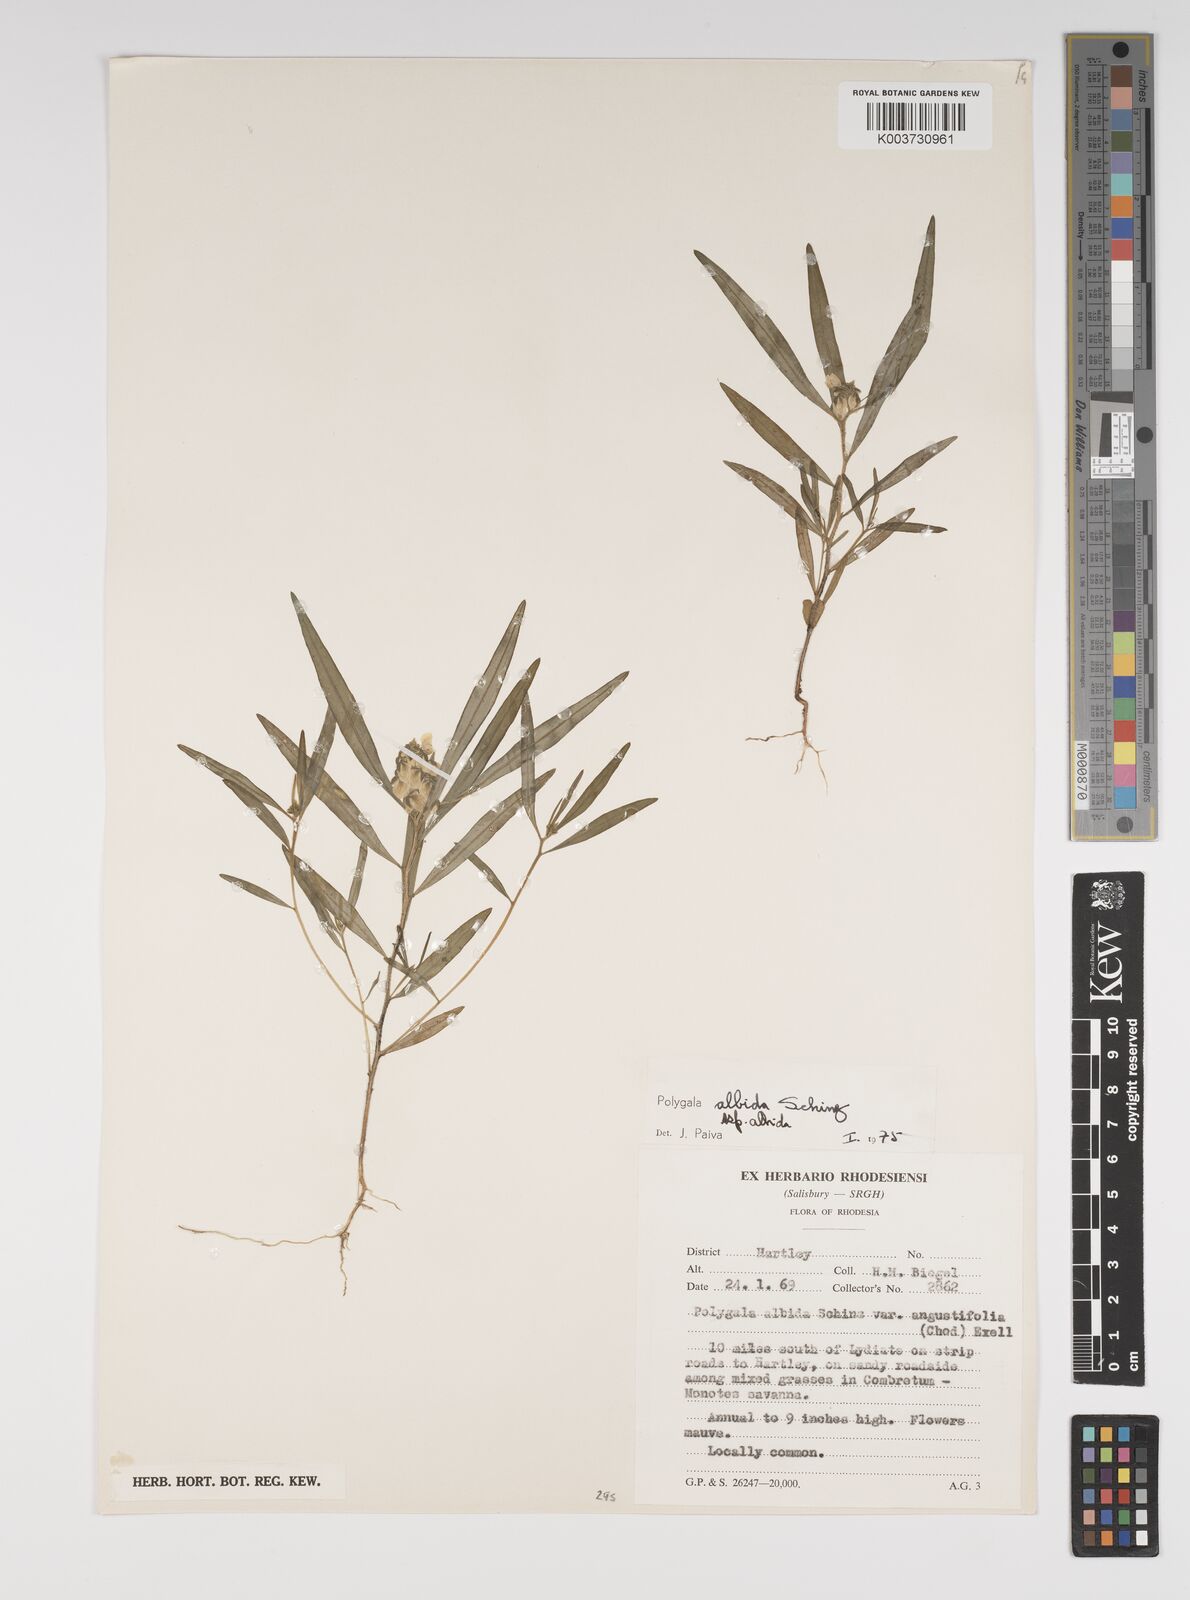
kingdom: Plantae
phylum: Tracheophyta
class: Magnoliopsida
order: Fabales
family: Polygalaceae
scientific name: Polygalaceae
